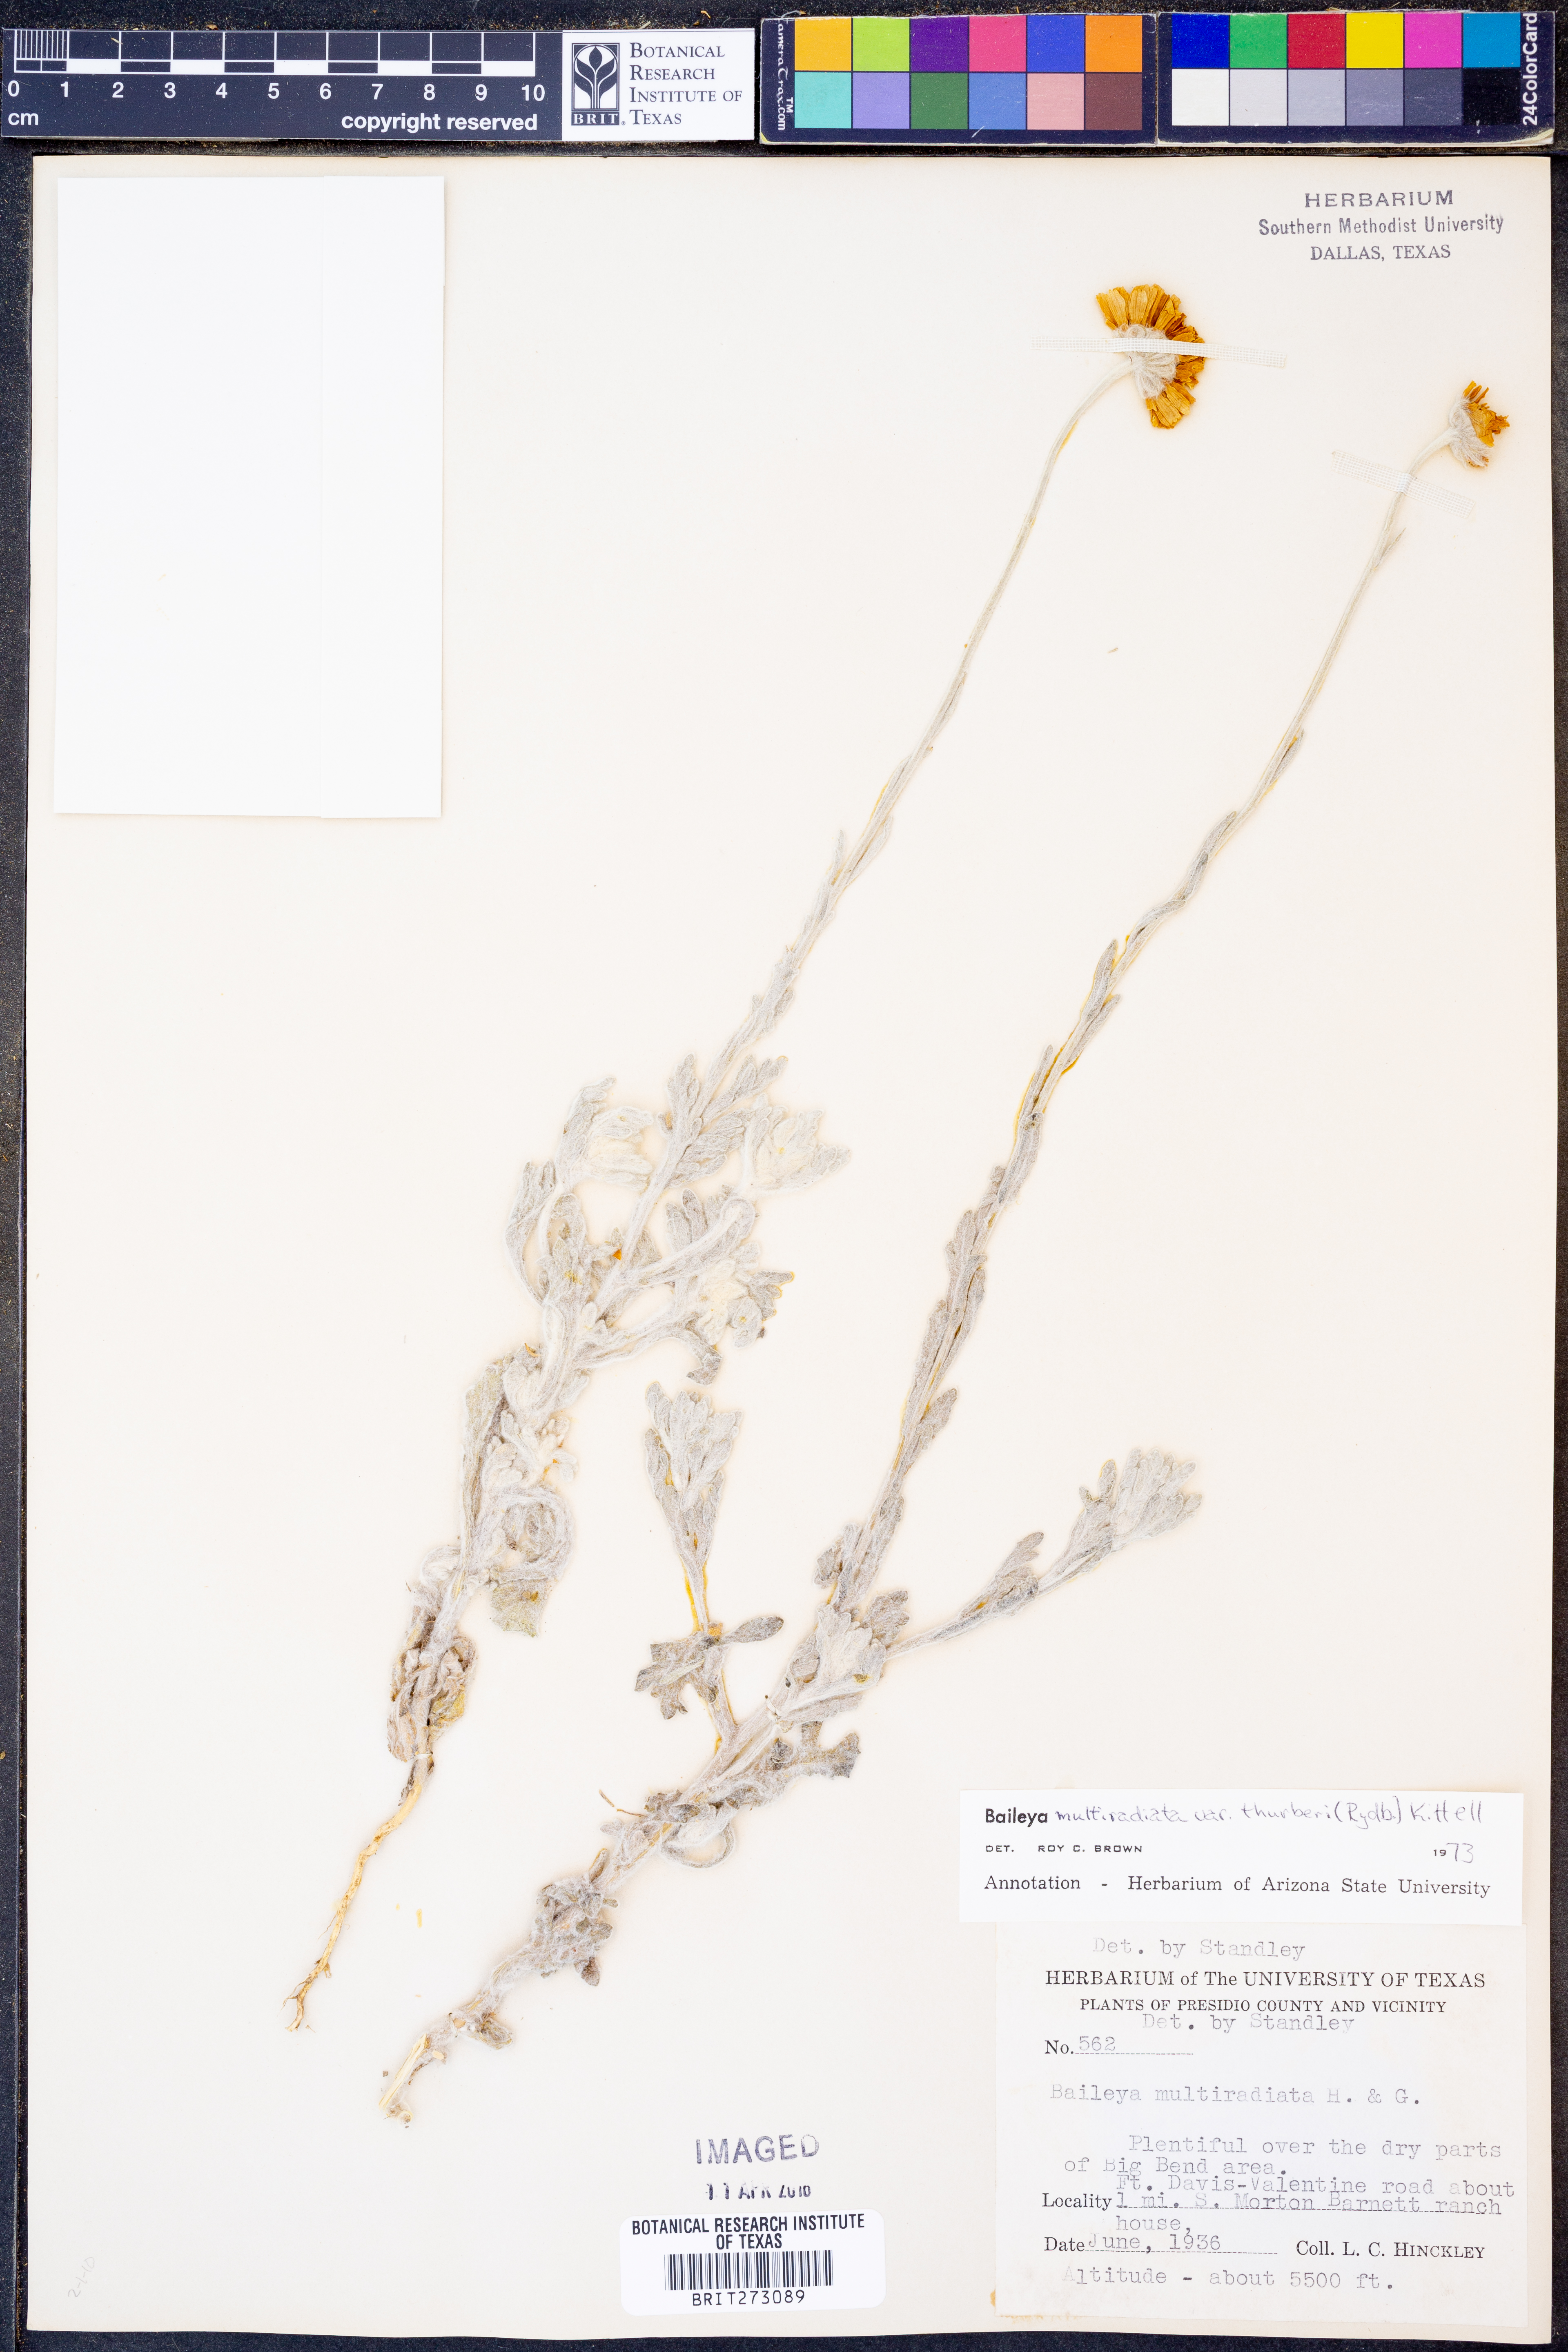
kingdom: Plantae
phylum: Tracheophyta
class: Magnoliopsida
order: Asterales
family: Asteraceae
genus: Baileya
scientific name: Baileya multiradiata
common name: Desert-marigold
